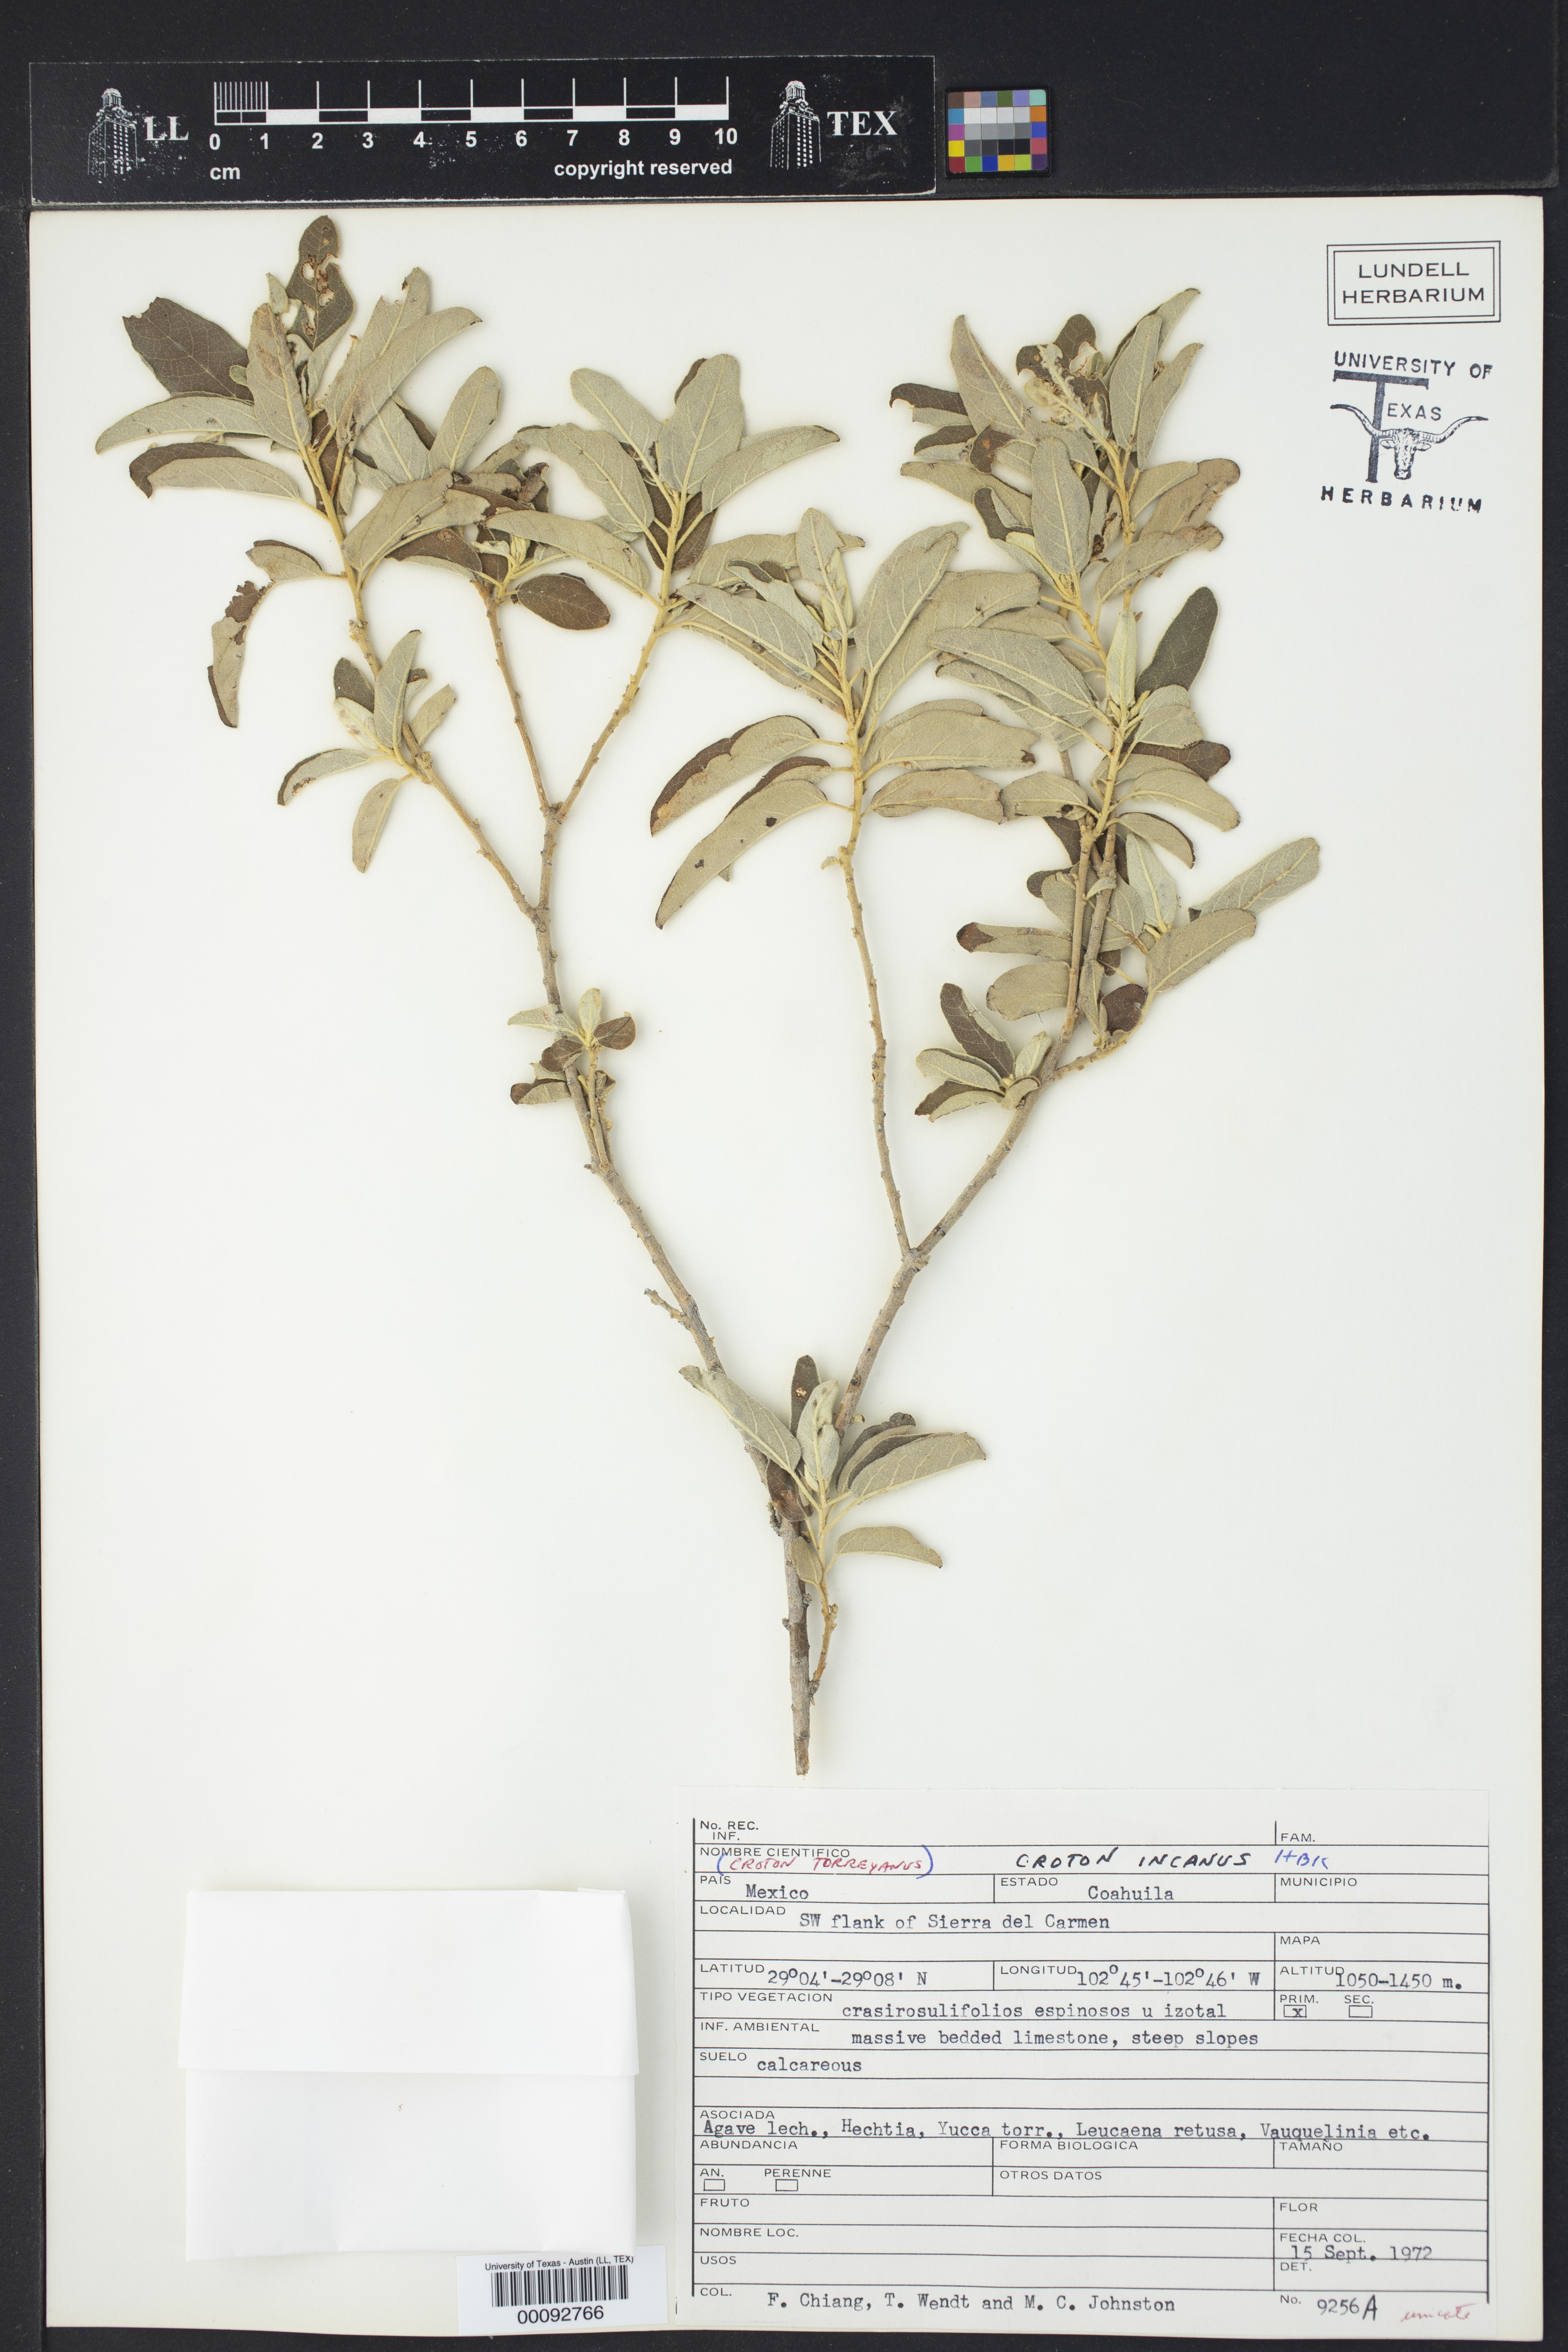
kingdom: Plantae
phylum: Tracheophyta
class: Magnoliopsida
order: Malpighiales
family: Euphorbiaceae
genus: Croton
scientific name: Croton incanus
